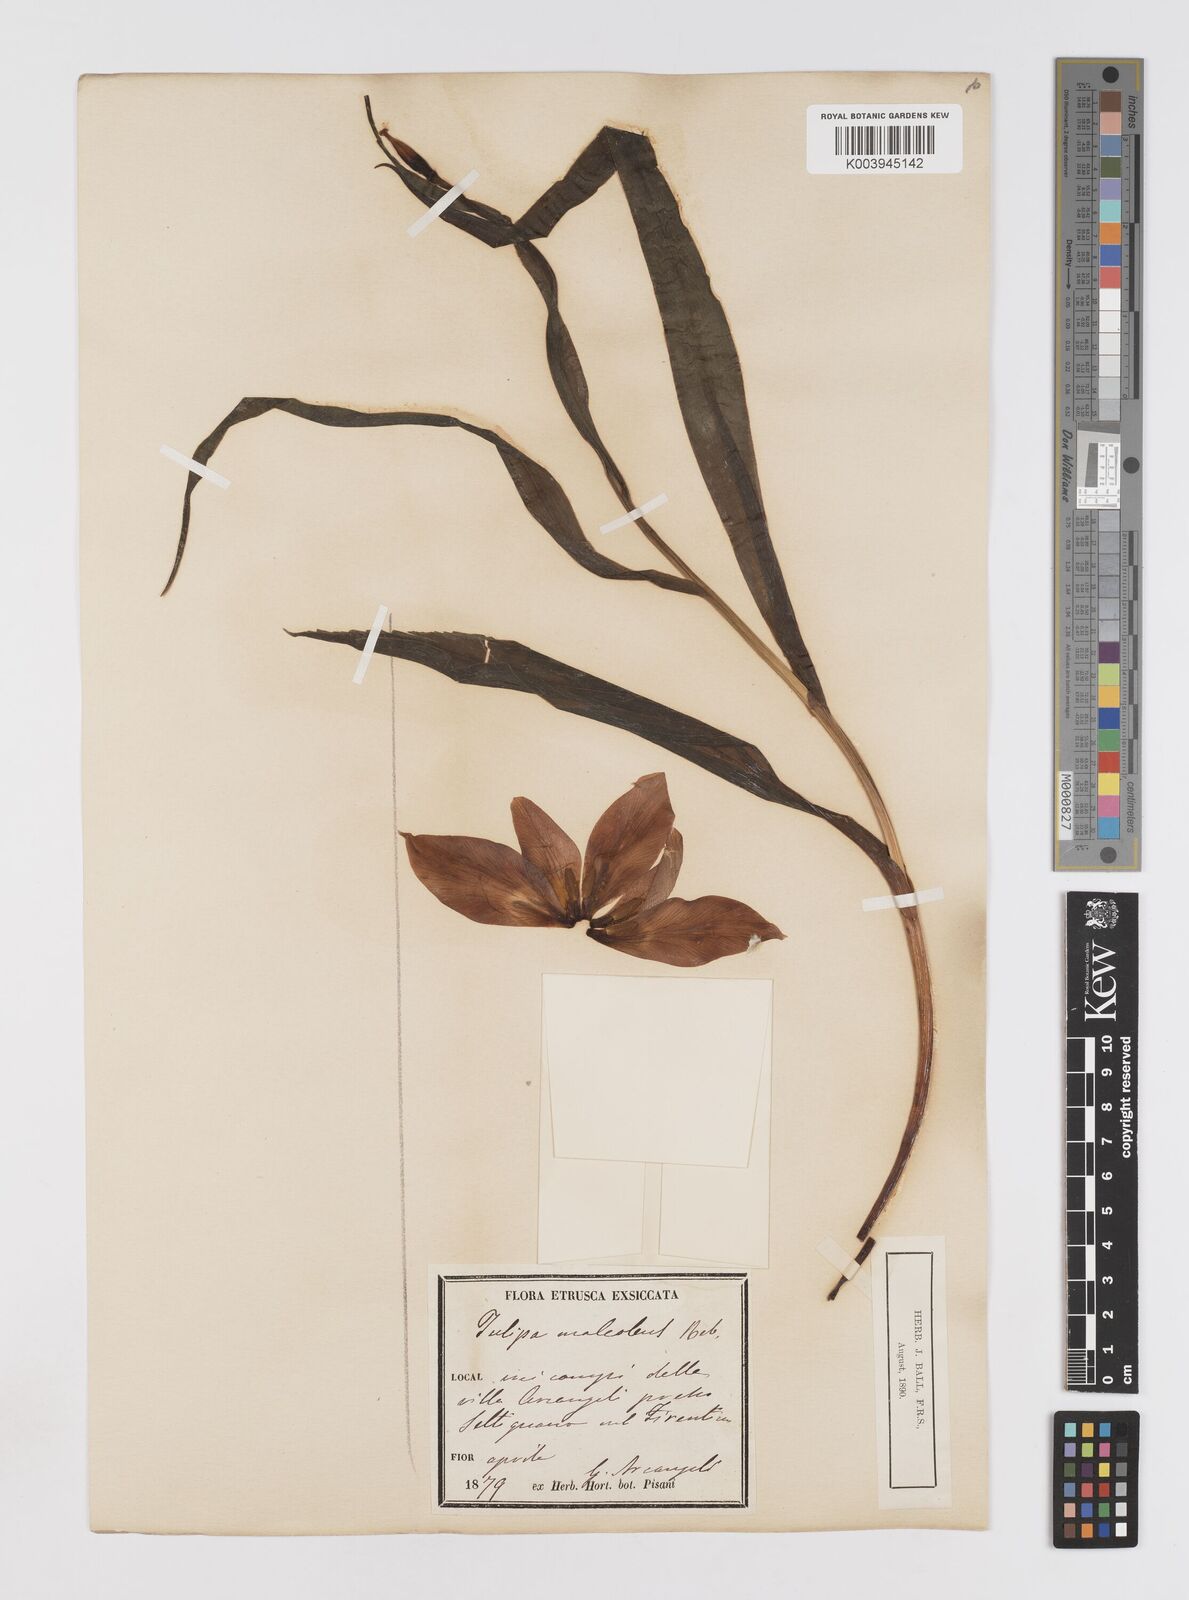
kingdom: Plantae
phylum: Tracheophyta
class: Liliopsida
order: Liliales
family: Liliaceae
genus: Tulipa
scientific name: Tulipa agenensis
